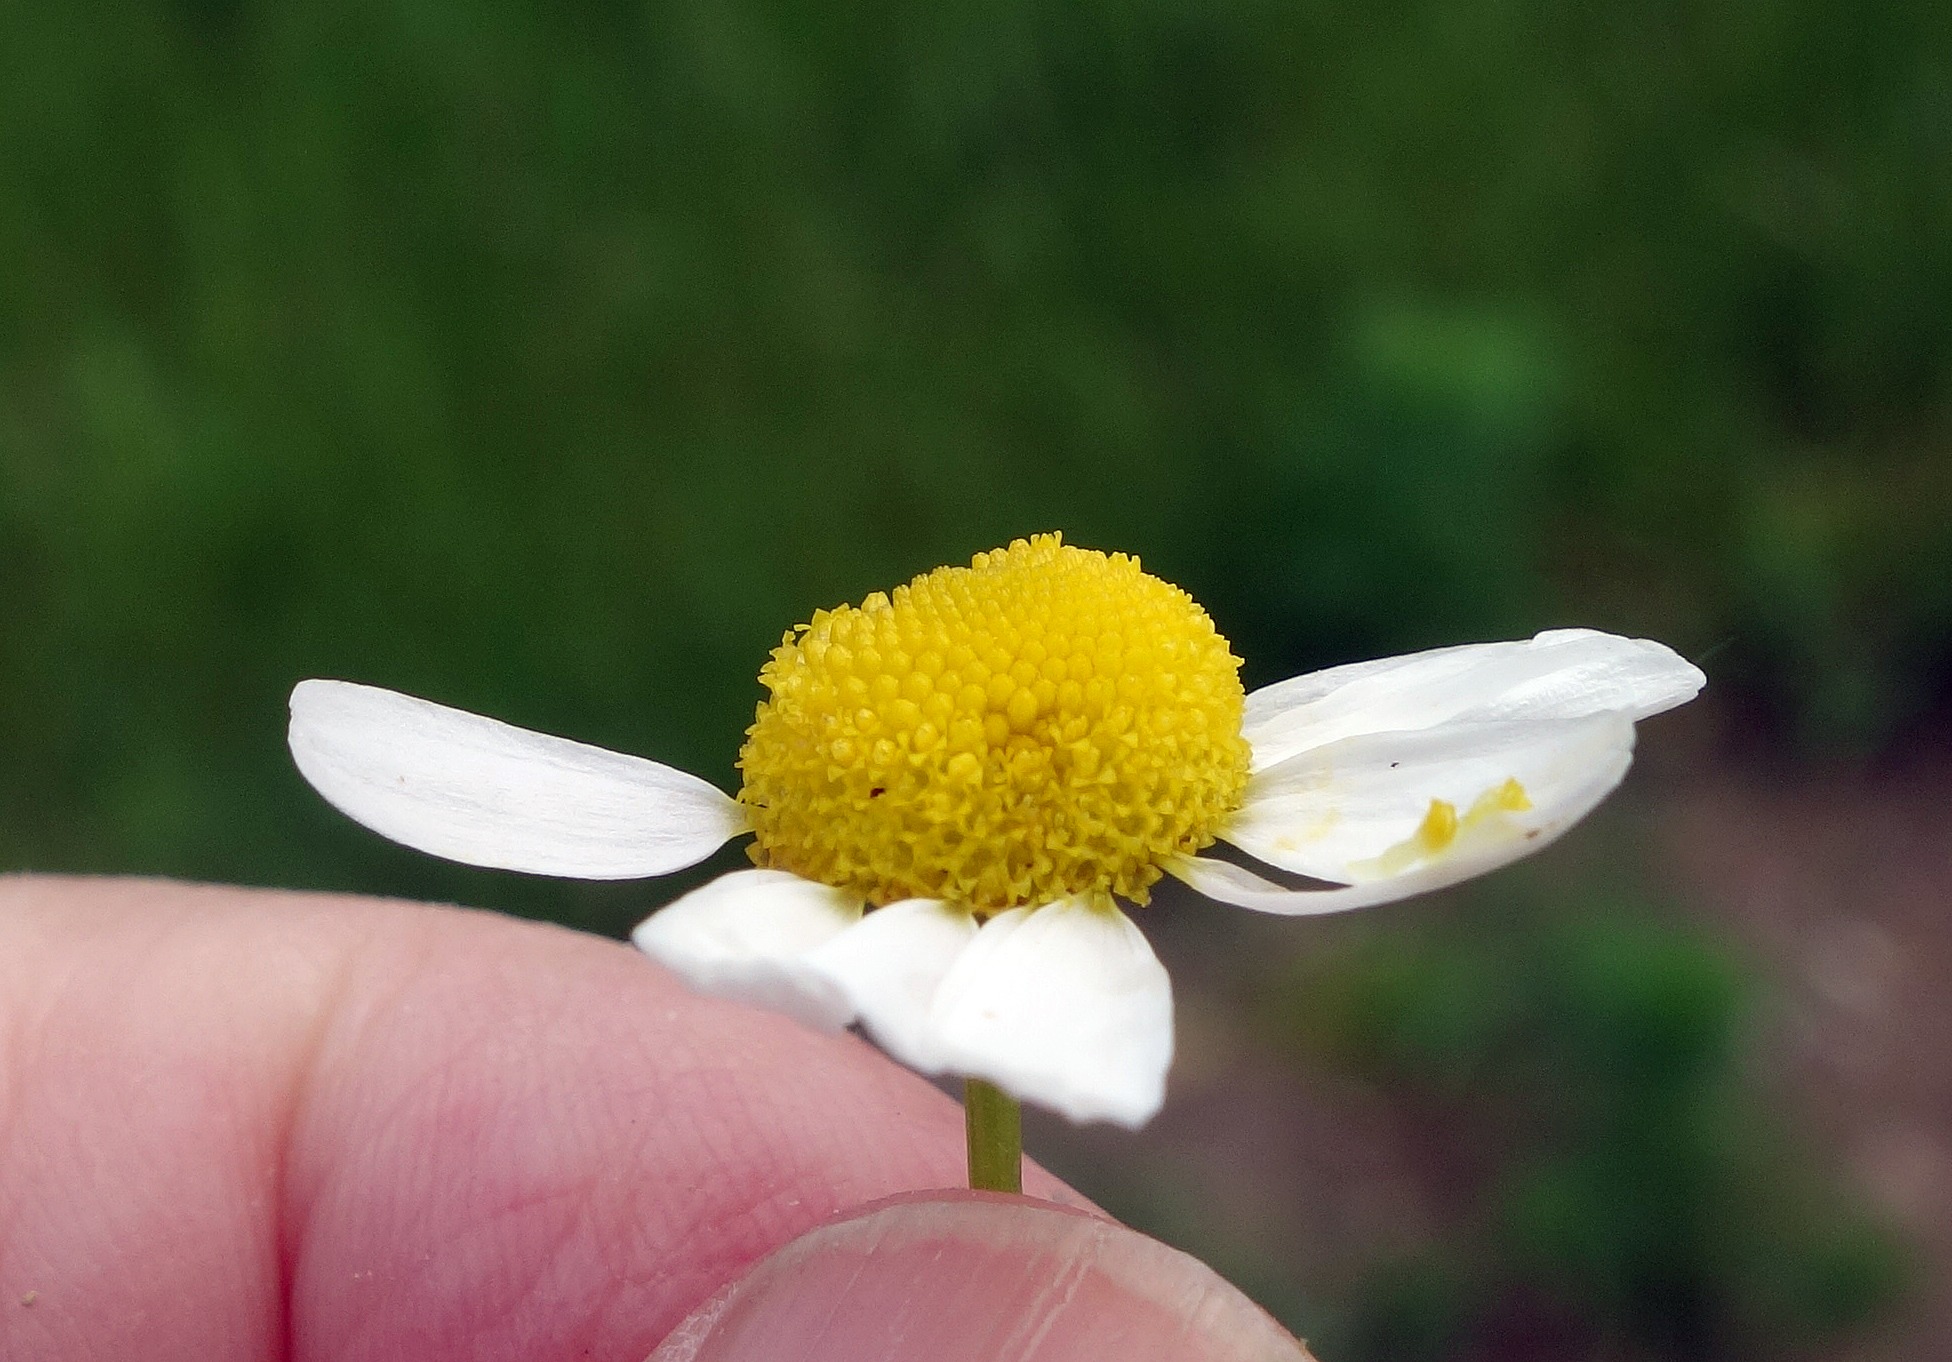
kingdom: Plantae
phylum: Tracheophyta
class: Magnoliopsida
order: Asterales
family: Asteraceae
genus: Matricaria
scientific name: Matricaria chamomilla
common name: Vellugtende kamille
